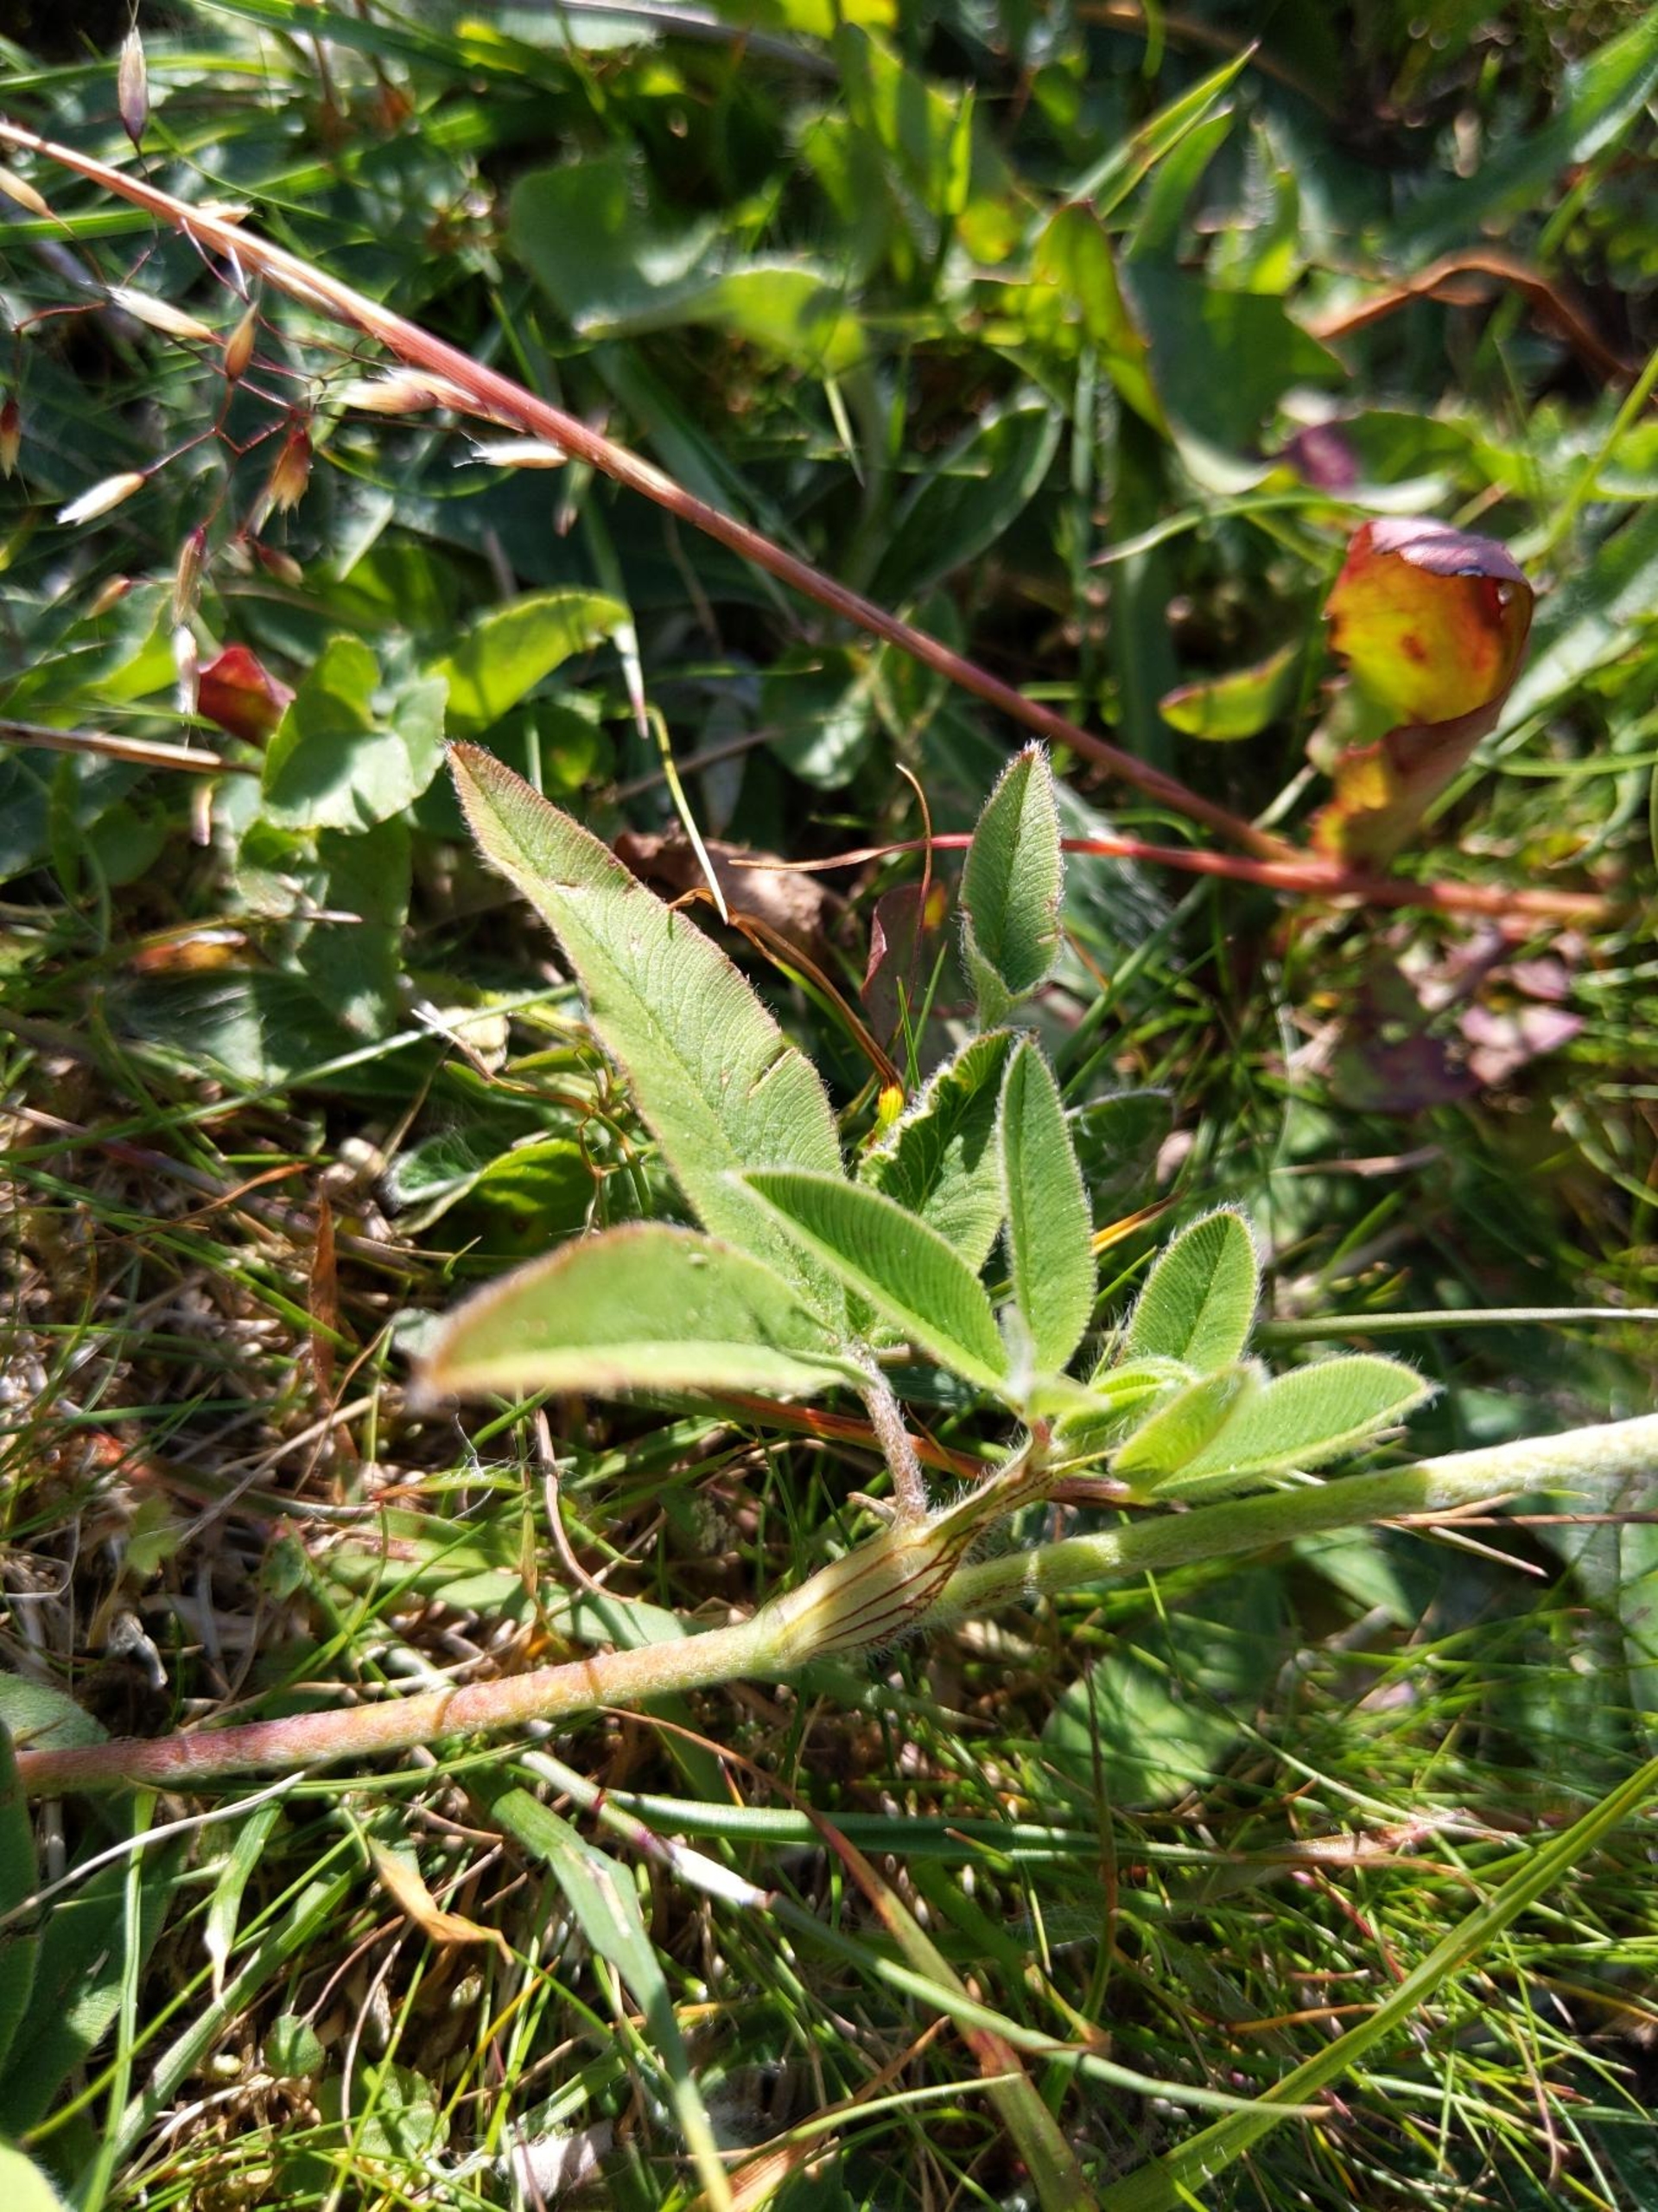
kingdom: Plantae
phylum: Tracheophyta
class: Magnoliopsida
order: Fabales
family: Fabaceae
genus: Trifolium
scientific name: Trifolium alpestre
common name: Skov-kløver
